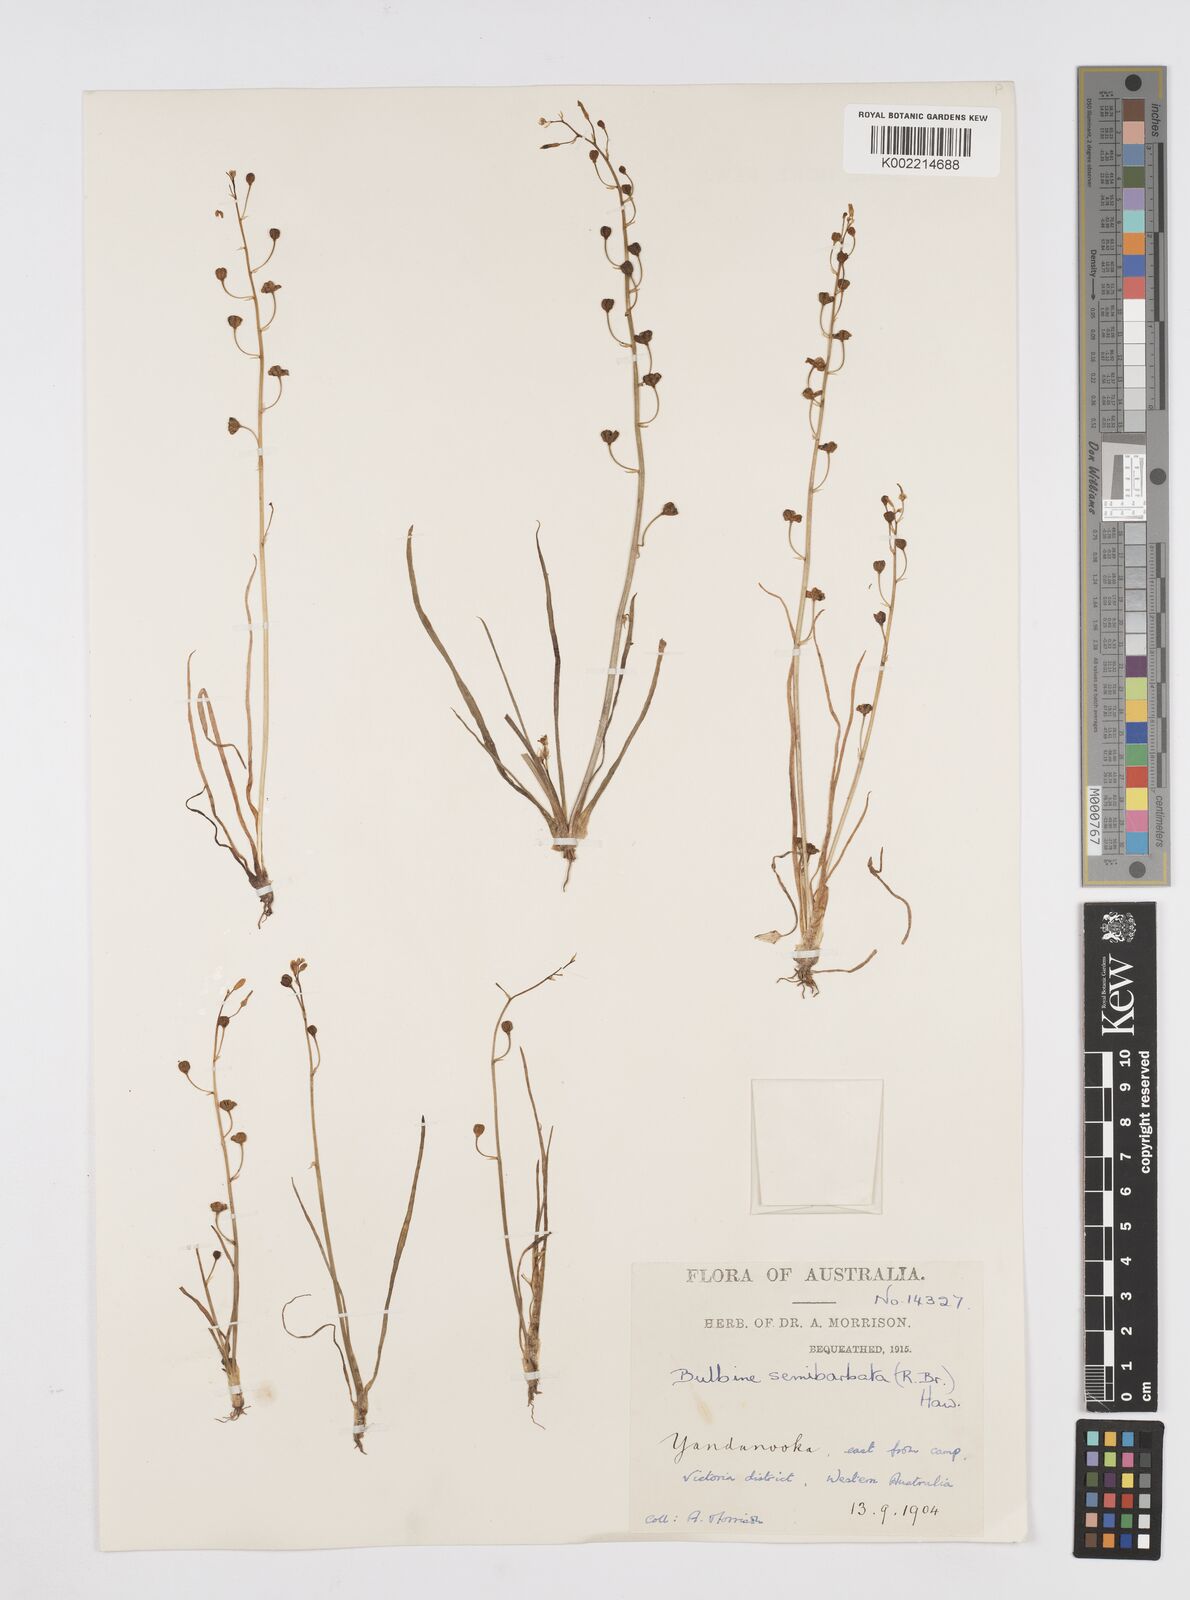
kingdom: Plantae
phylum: Tracheophyta
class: Liliopsida
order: Asparagales
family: Asphodelaceae
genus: Bulbine
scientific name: Bulbine semibarbata
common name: Leek lily
